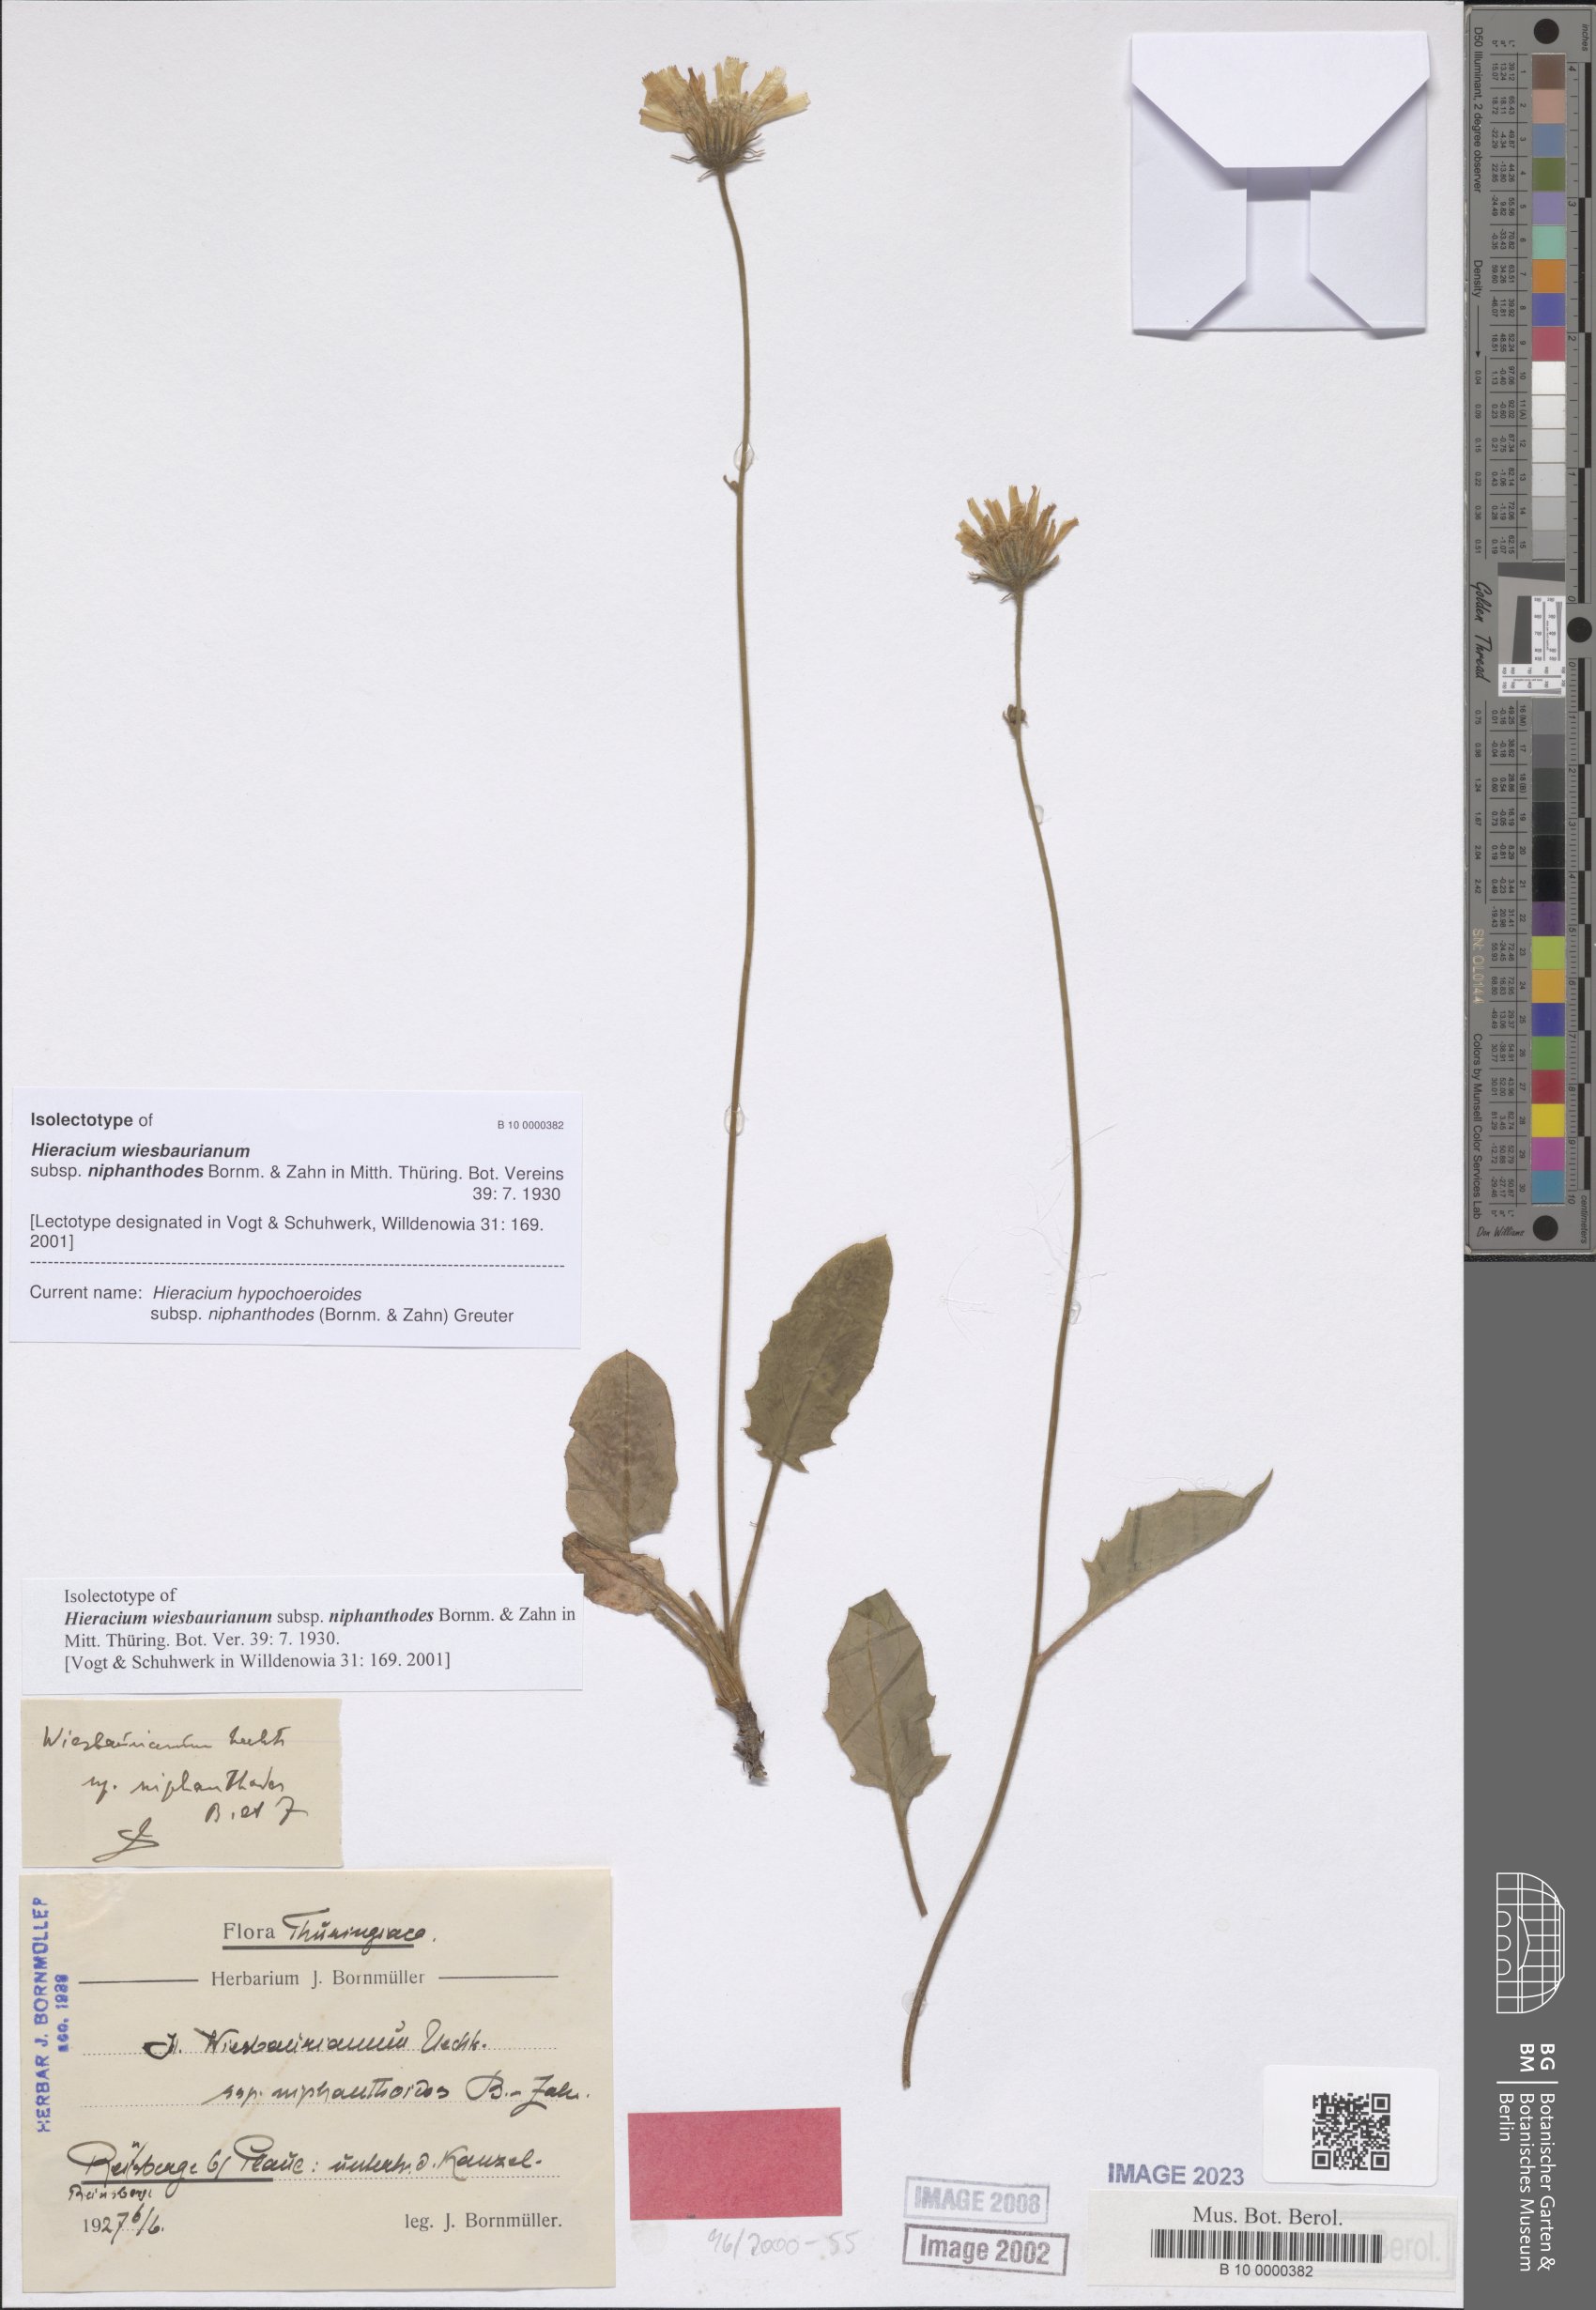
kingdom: Plantae
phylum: Tracheophyta
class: Magnoliopsida
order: Asterales
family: Asteraceae
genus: Hieracium
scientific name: Hieracium hypochoeroides
